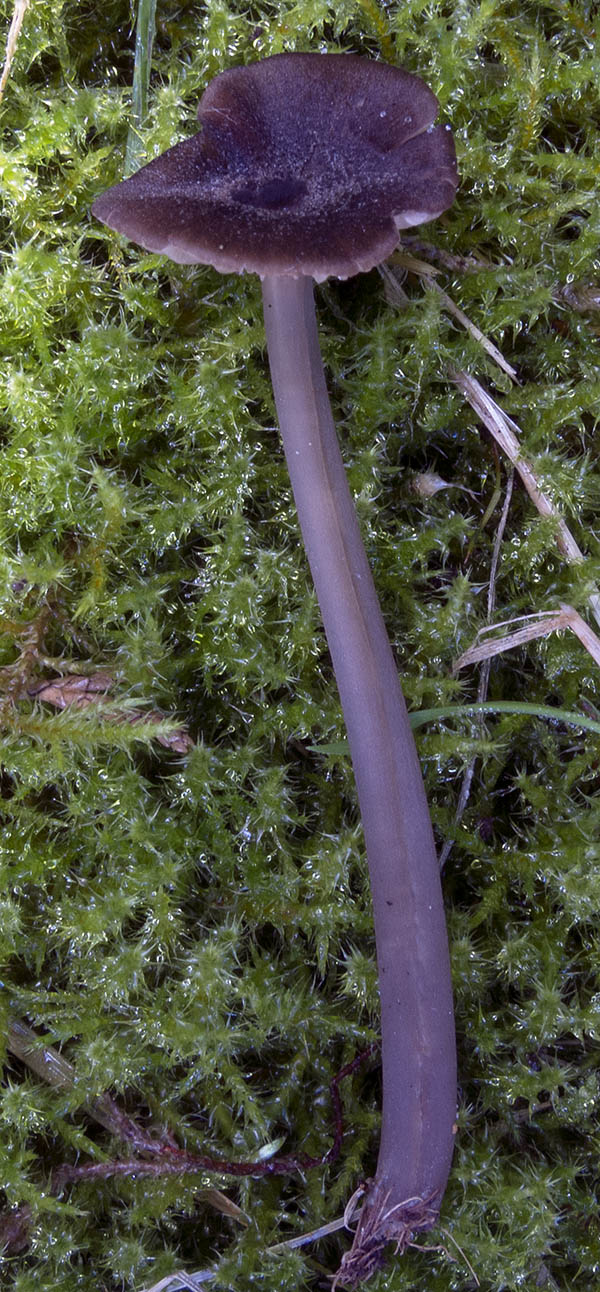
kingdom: Fungi
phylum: Basidiomycota
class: Agaricomycetes
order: Agaricales
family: Entolomataceae
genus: Entoloma
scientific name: Entoloma
